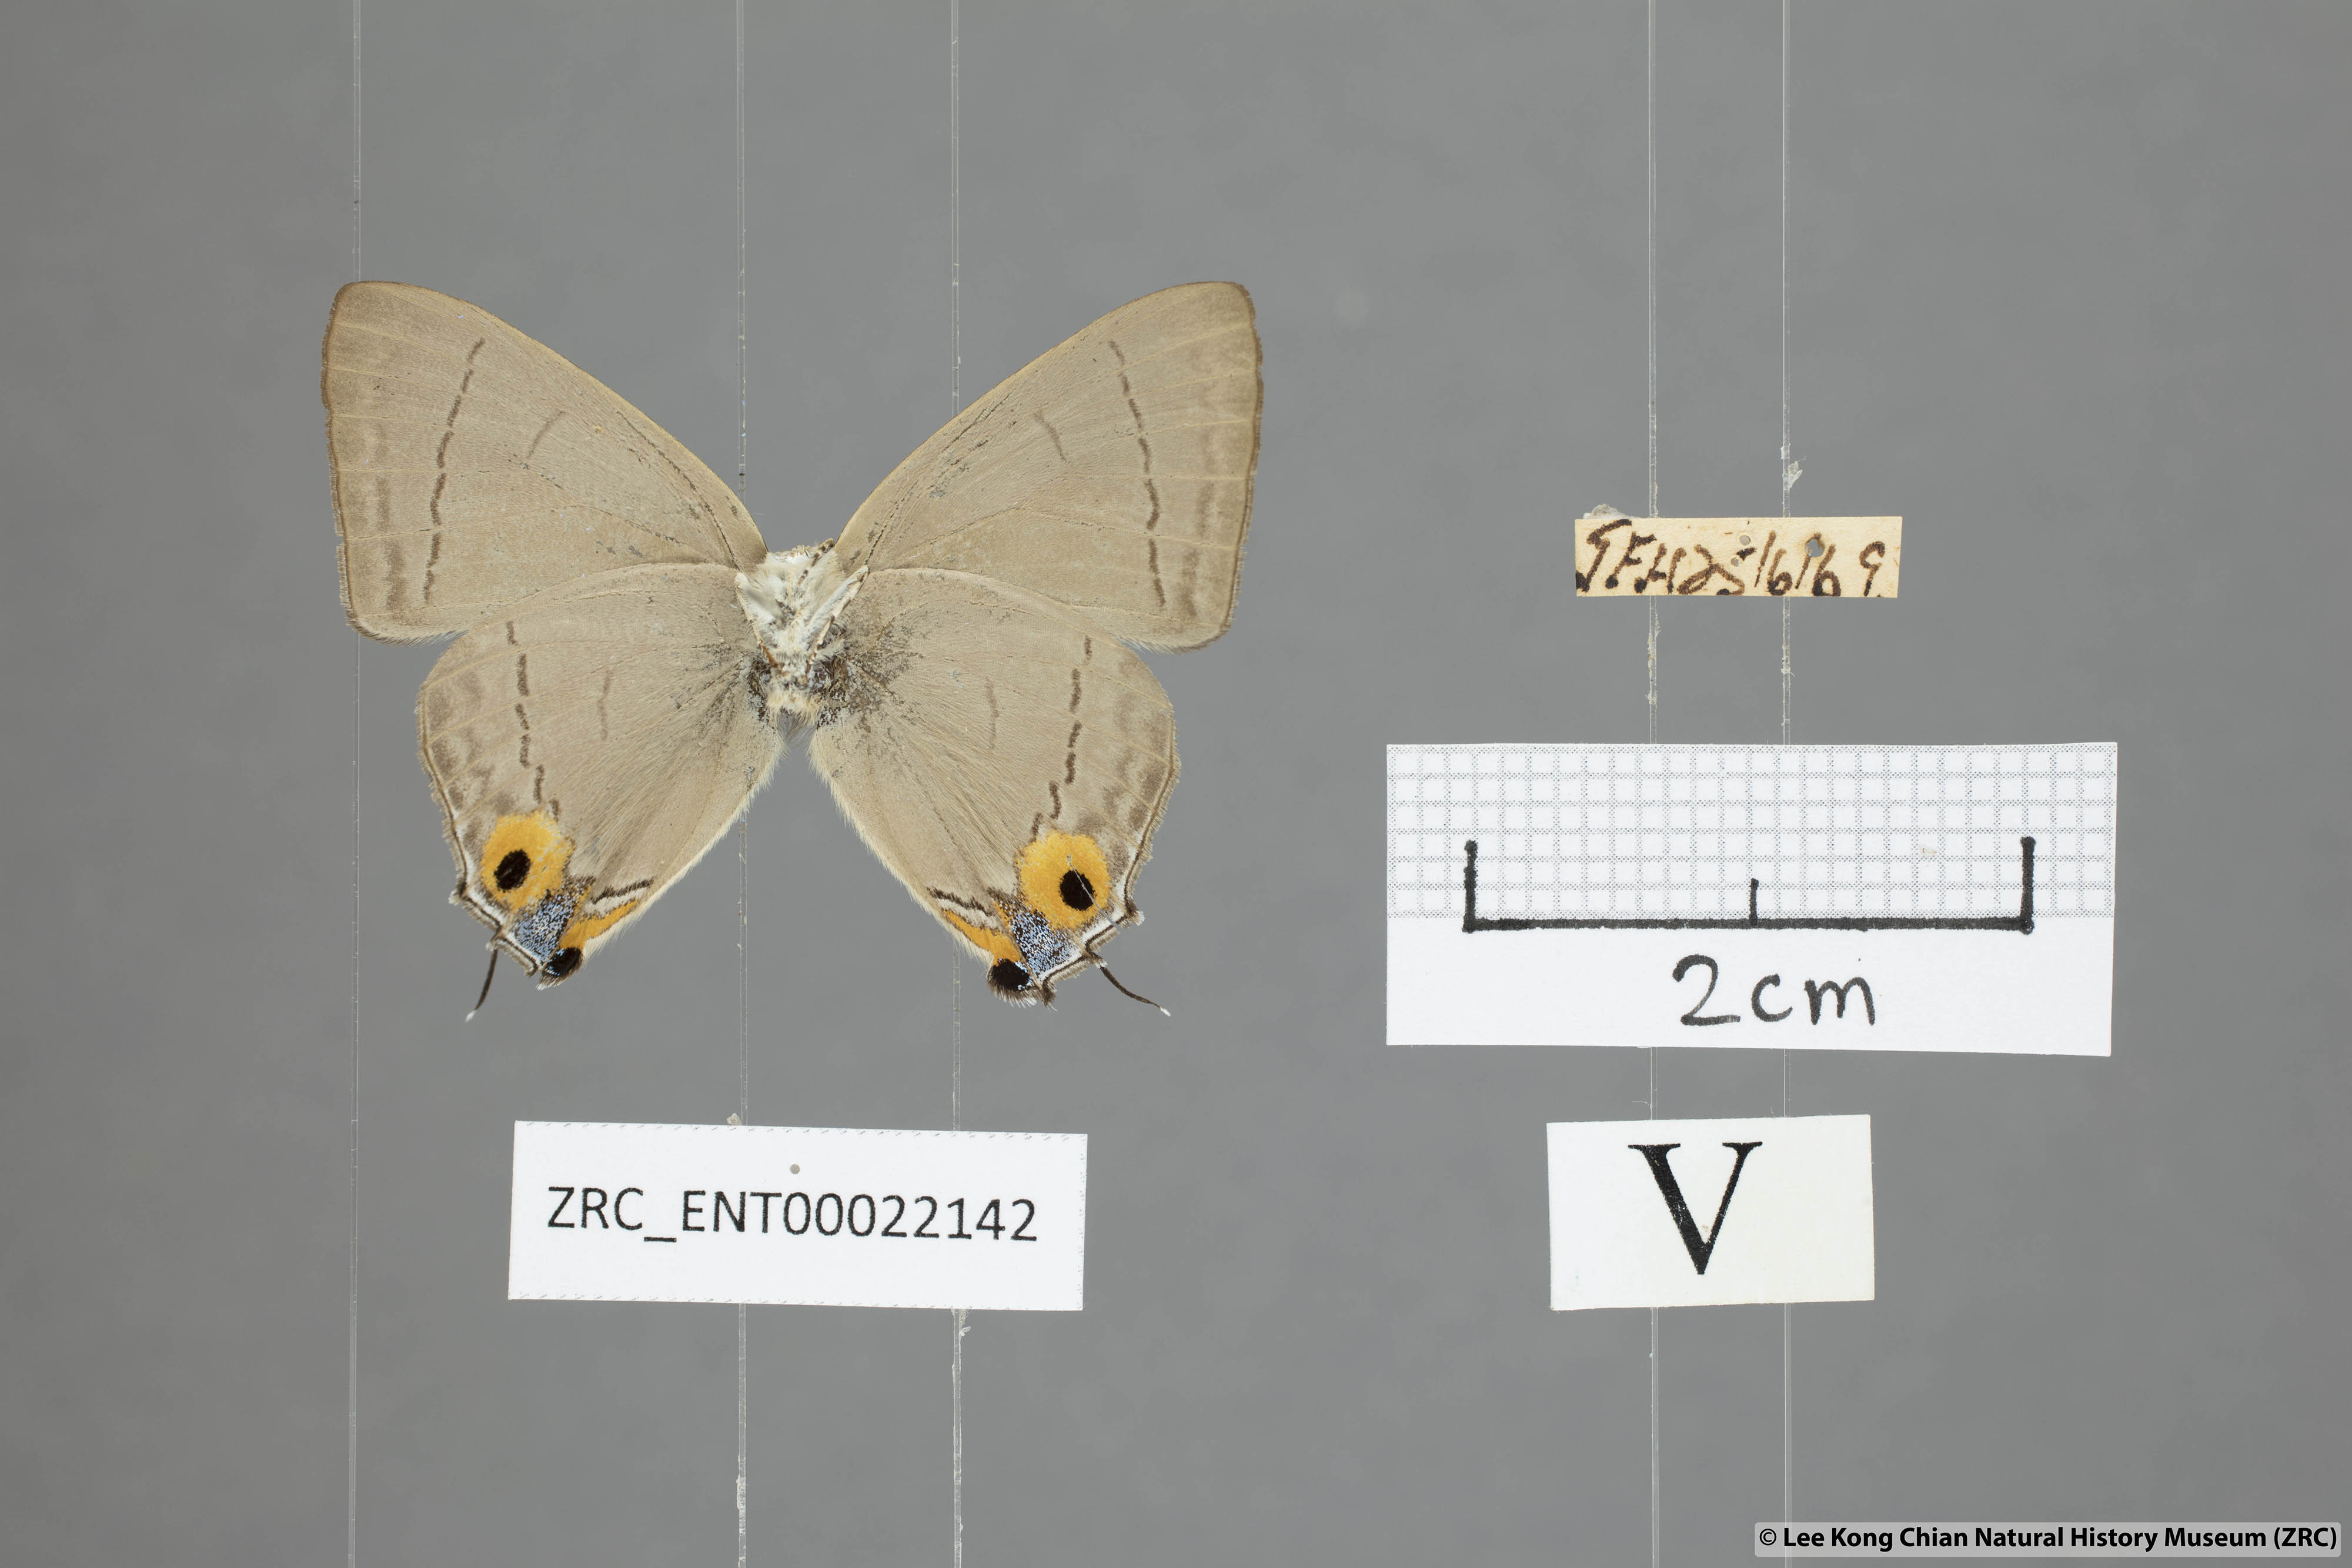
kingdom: Animalia
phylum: Arthropoda
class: Insecta
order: Lepidoptera
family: Lycaenidae
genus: Tajuria
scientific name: Tajuria albiplaga
